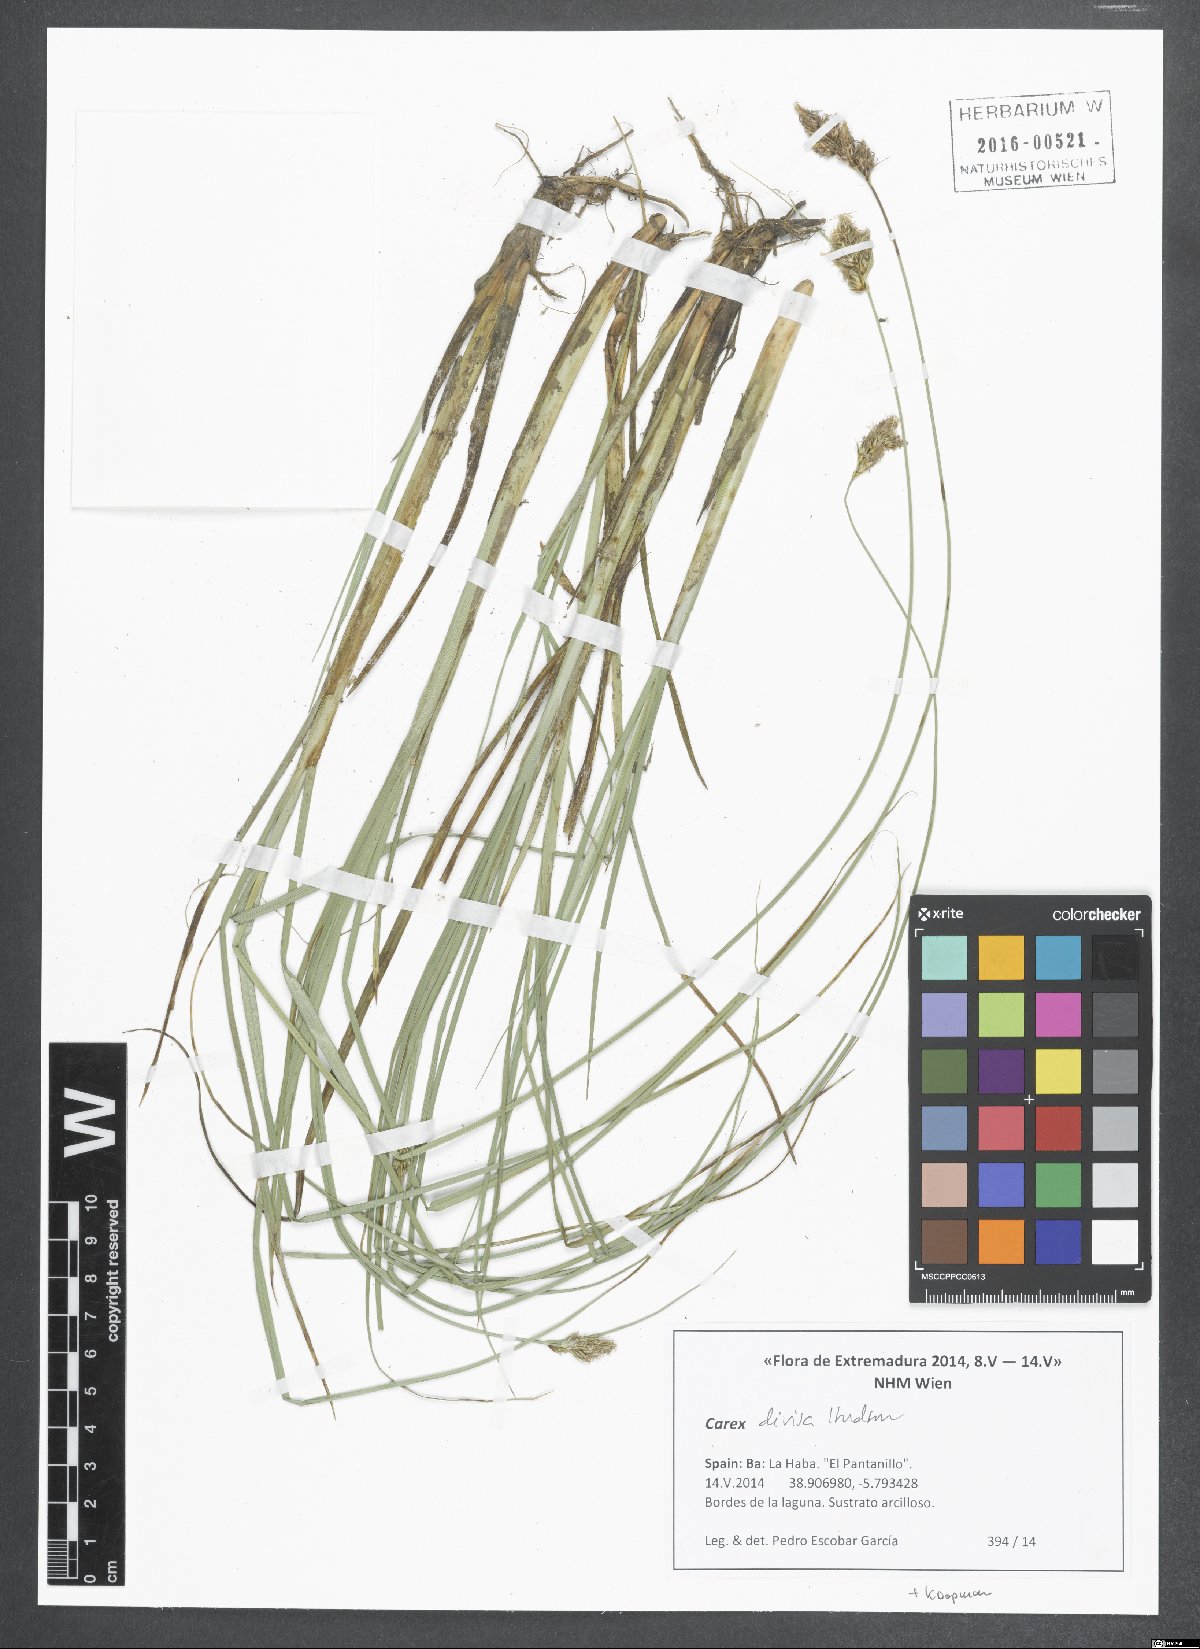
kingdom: Plantae
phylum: Tracheophyta
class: Liliopsida
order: Poales
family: Cyperaceae
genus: Carex
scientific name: Carex divisa
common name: Divided sedge
